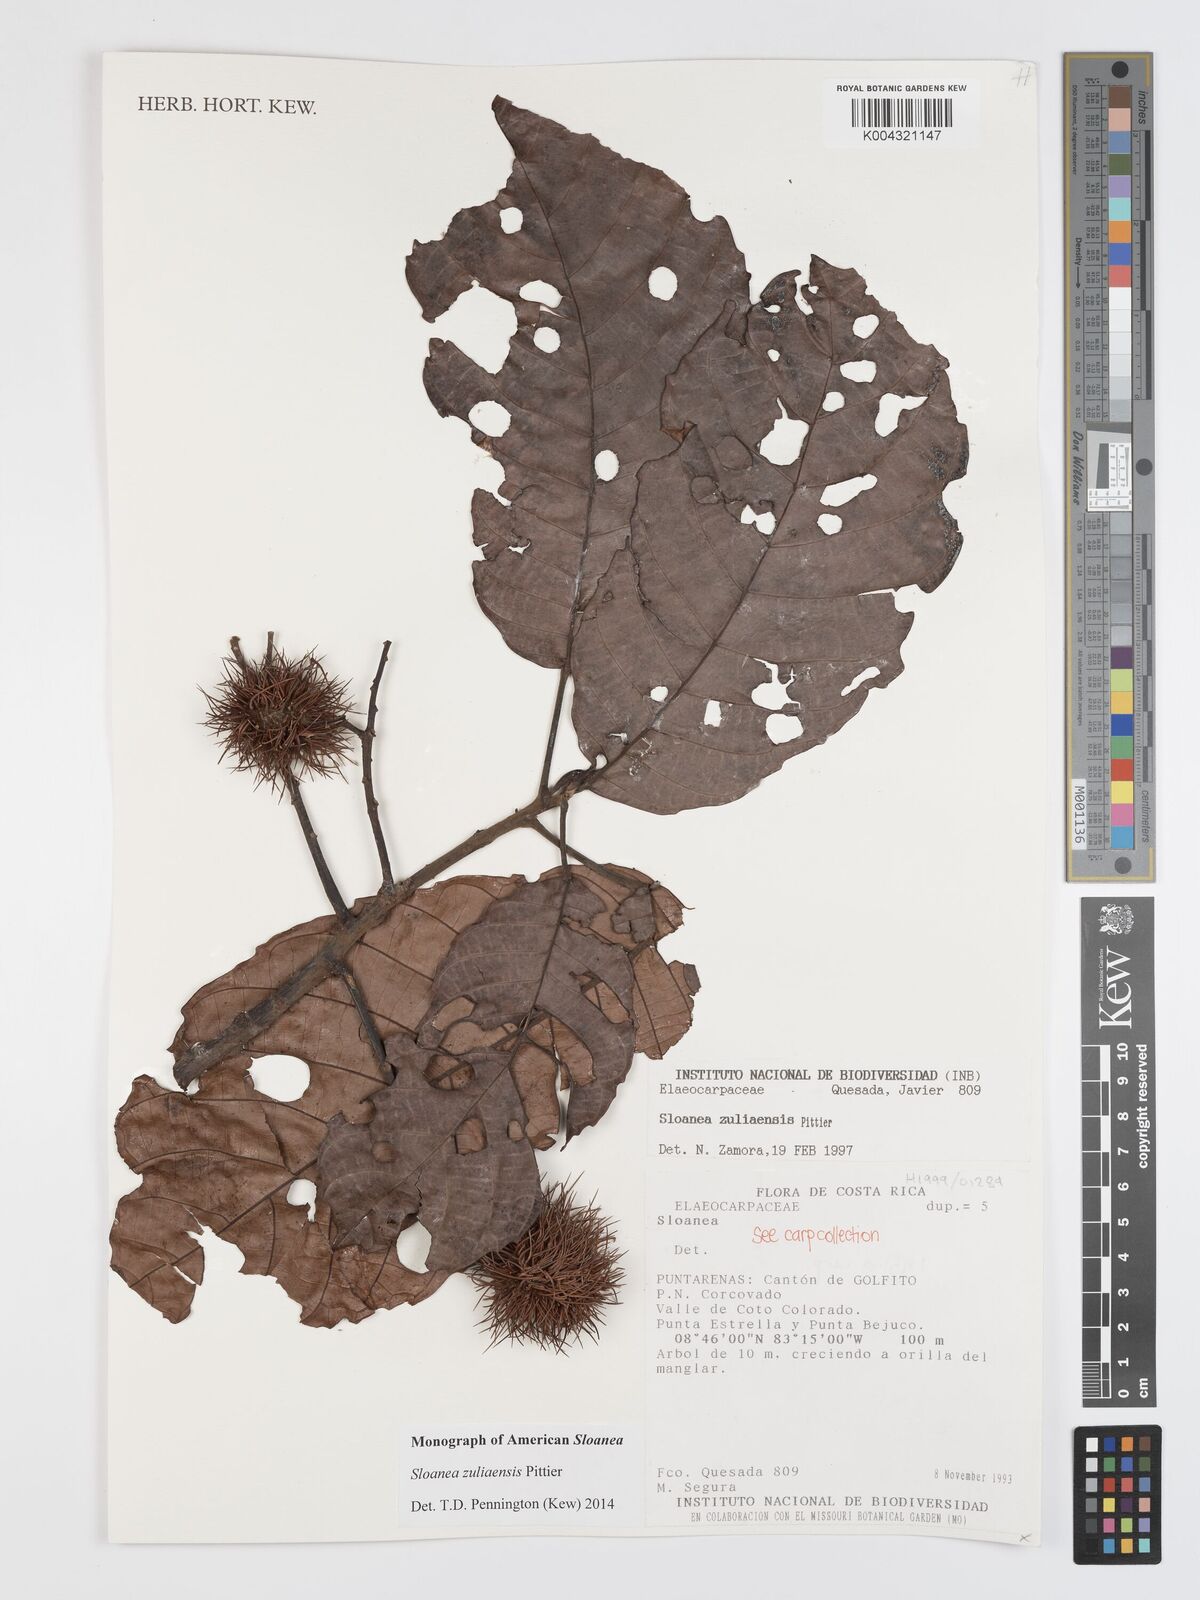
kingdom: Plantae
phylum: Tracheophyta
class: Magnoliopsida
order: Oxalidales
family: Elaeocarpaceae
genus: Sloanea
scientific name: Sloanea zuliaensis
